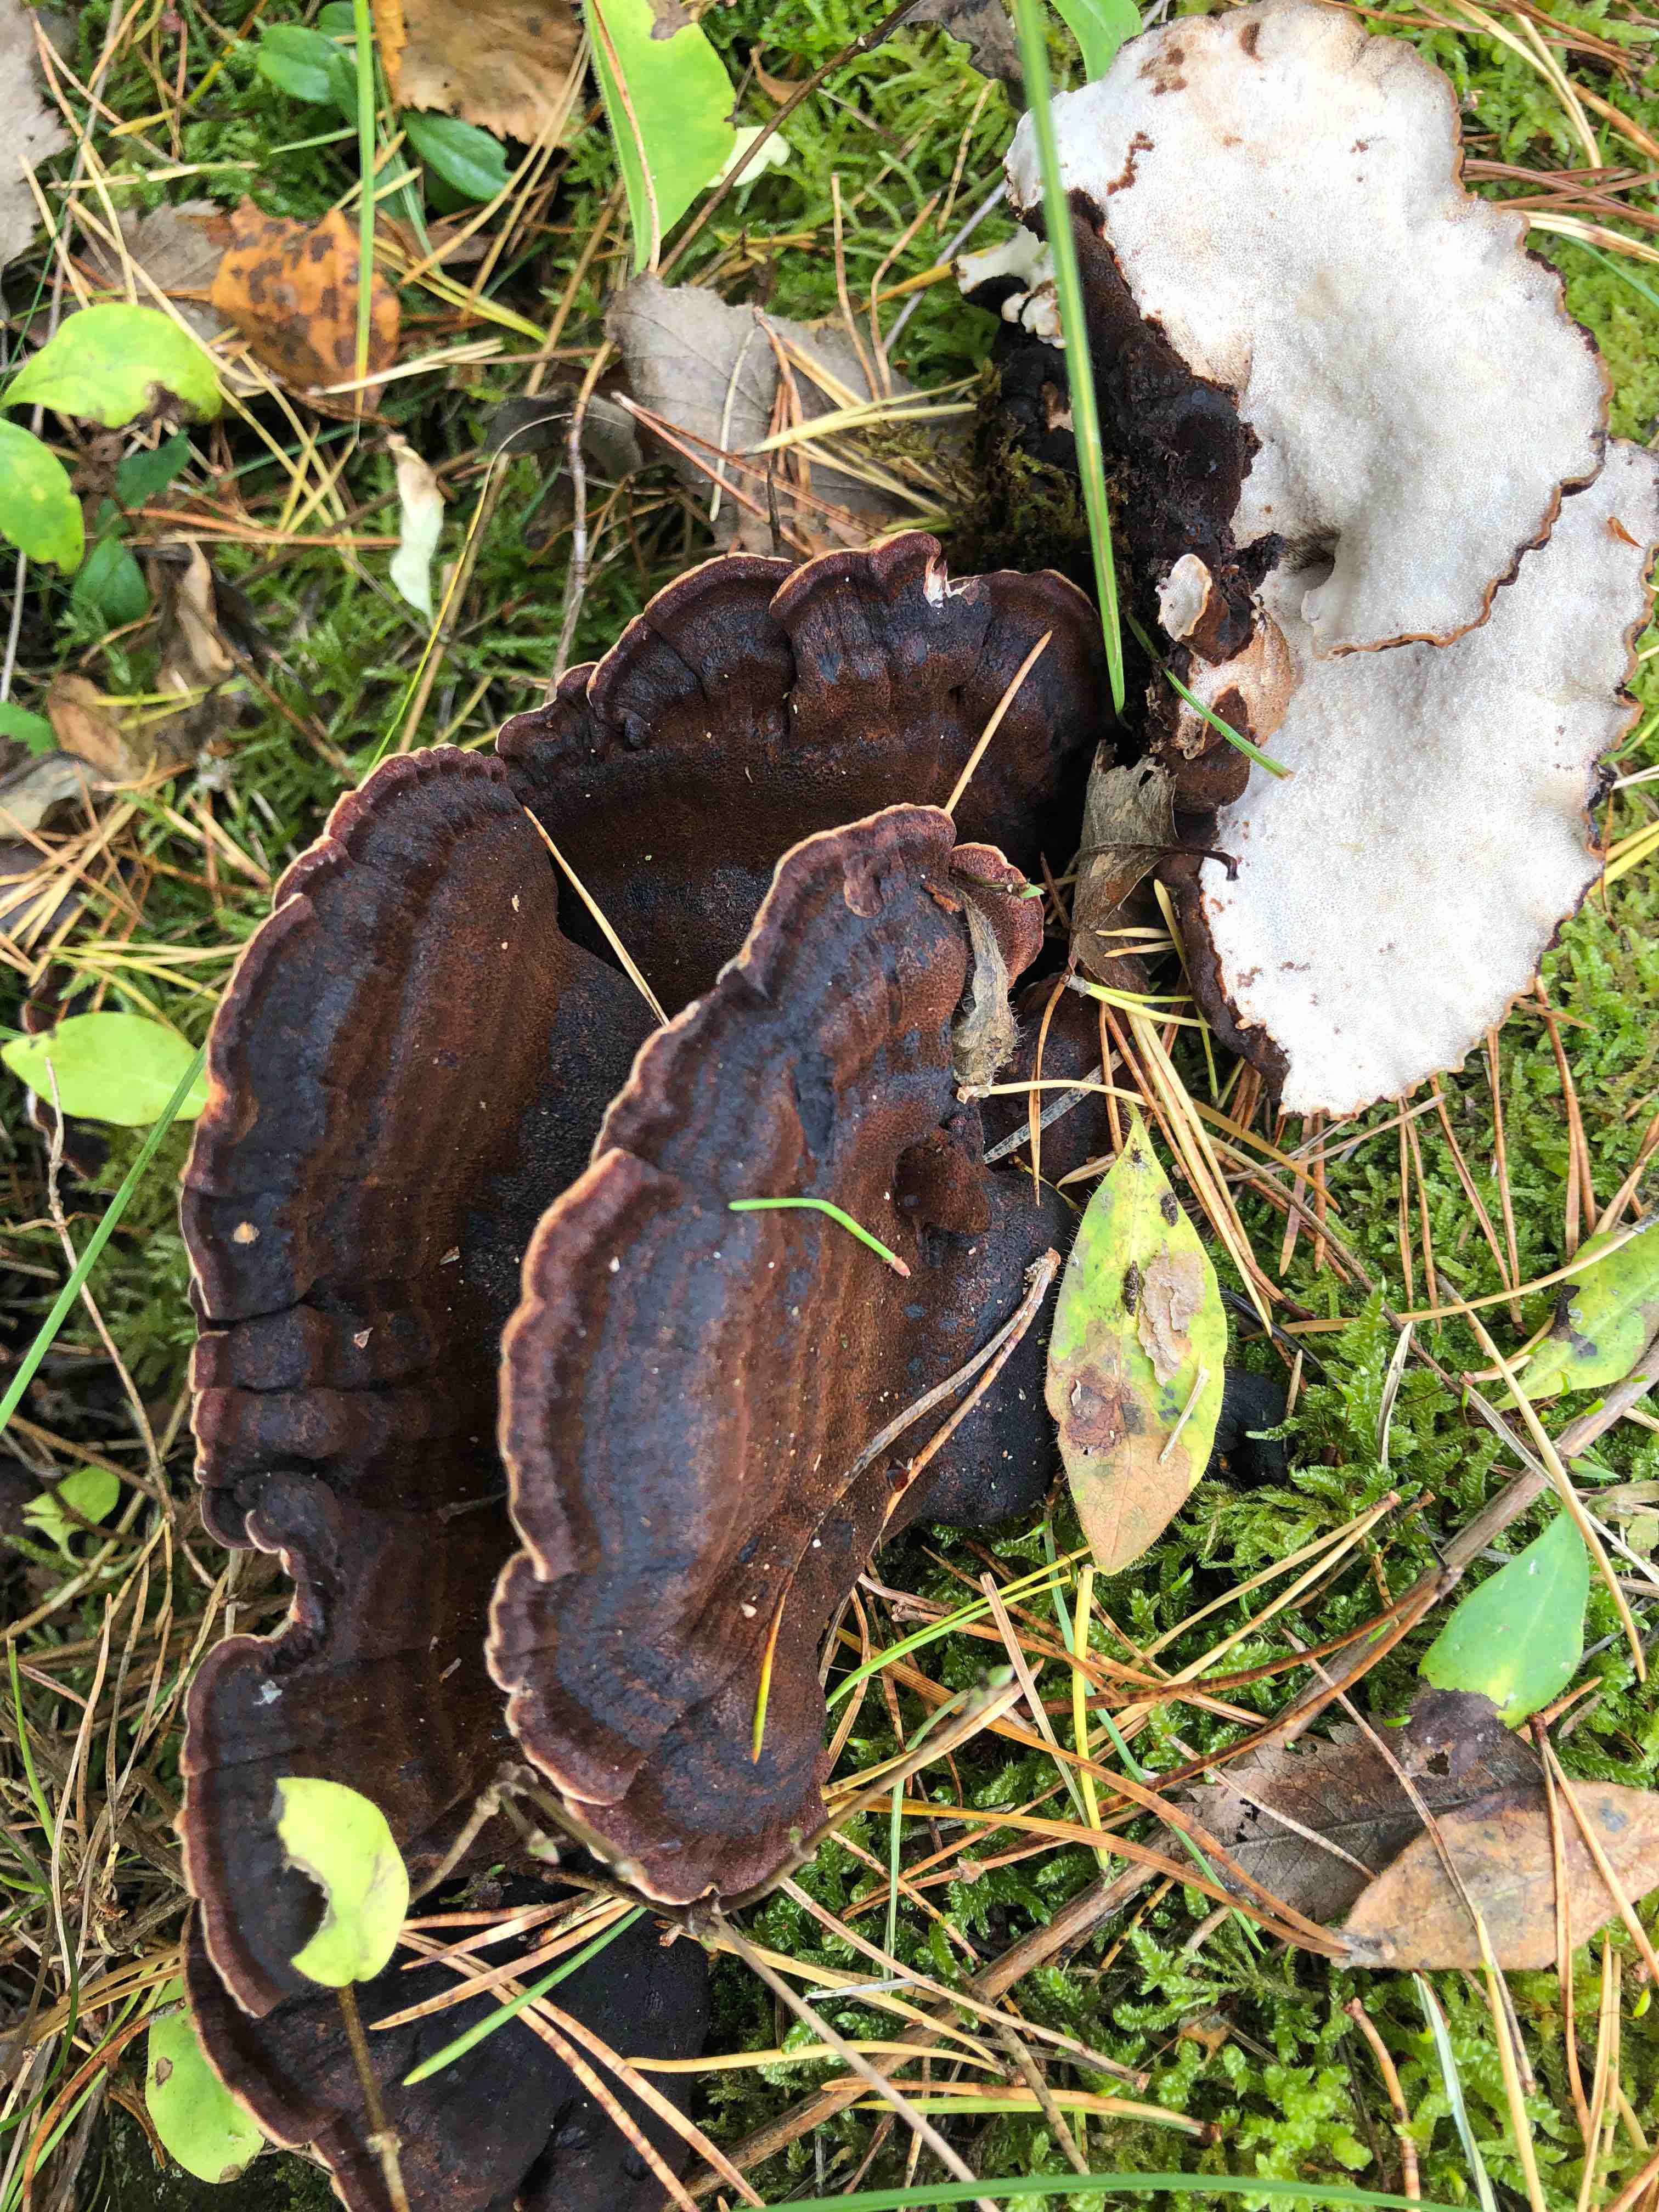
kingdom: Fungi
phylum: Basidiomycota
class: Agaricomycetes
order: Polyporales
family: Ischnodermataceae
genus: Ischnoderma
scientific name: Ischnoderma benzoinum
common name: gran-tjæreporesvamp
